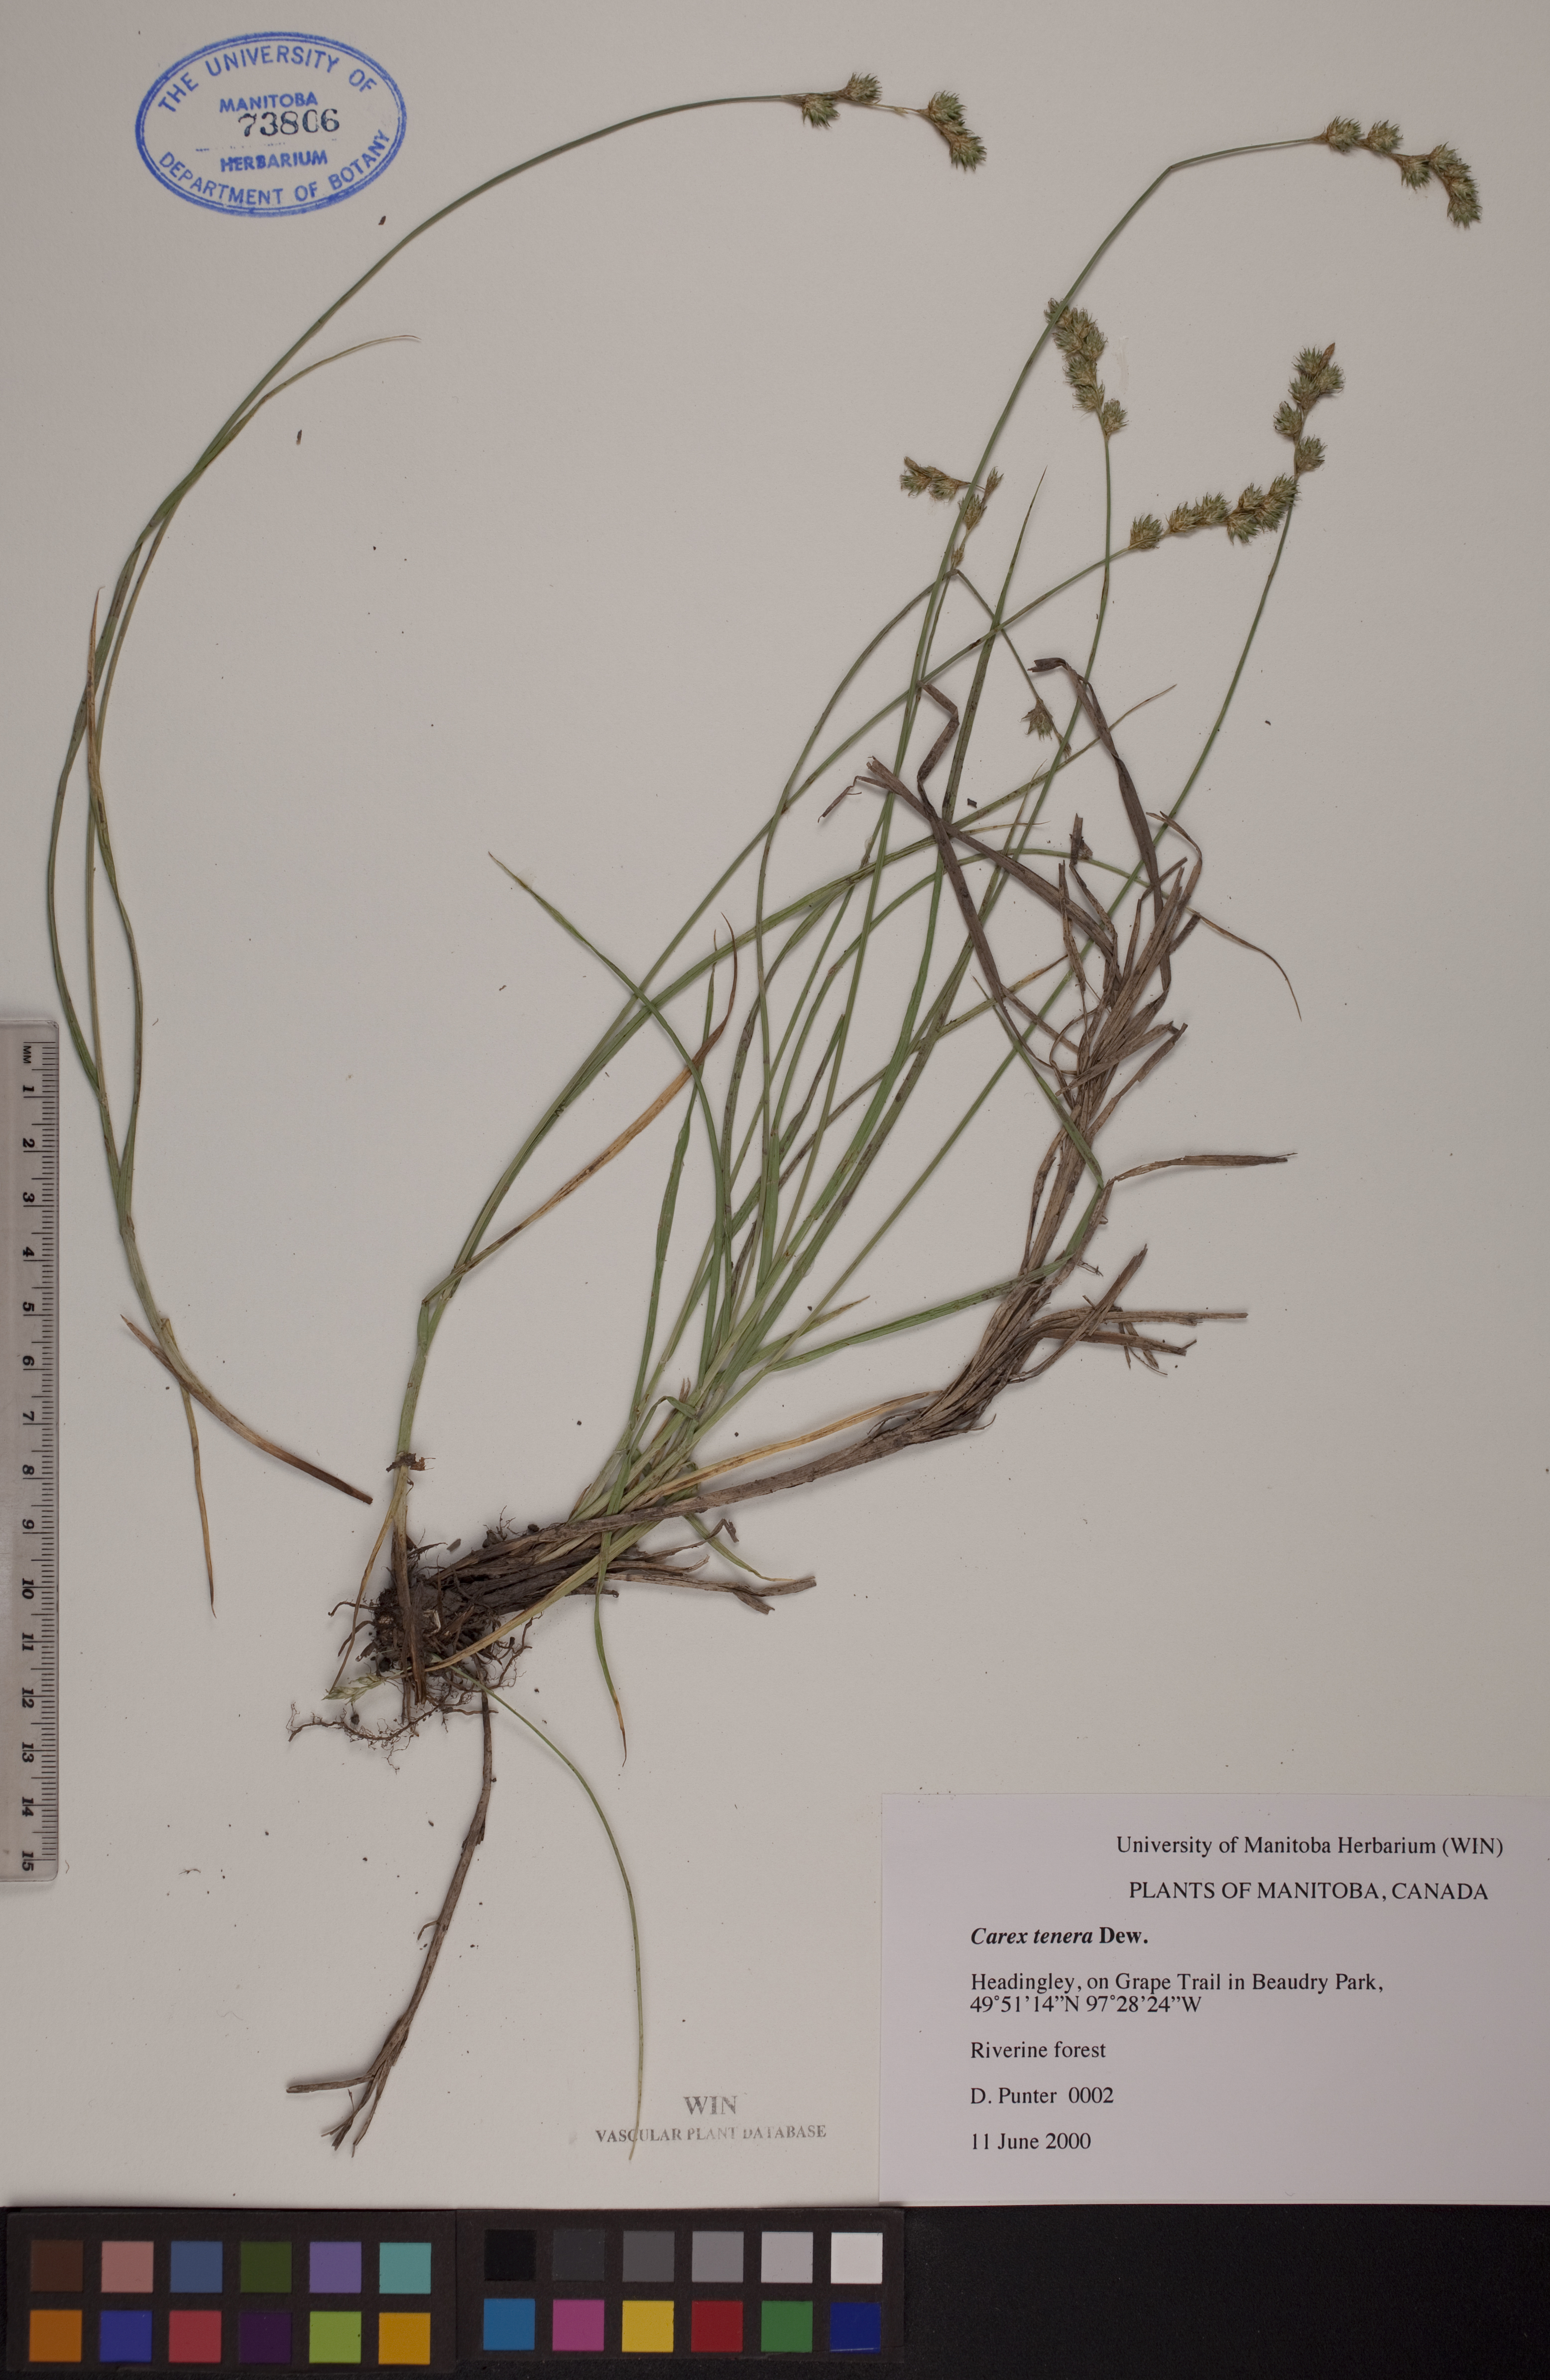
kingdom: Plantae
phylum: Tracheophyta
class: Liliopsida
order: Poales
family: Cyperaceae
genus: Carex
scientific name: Carex tenera
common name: Broad-fruited sedge
